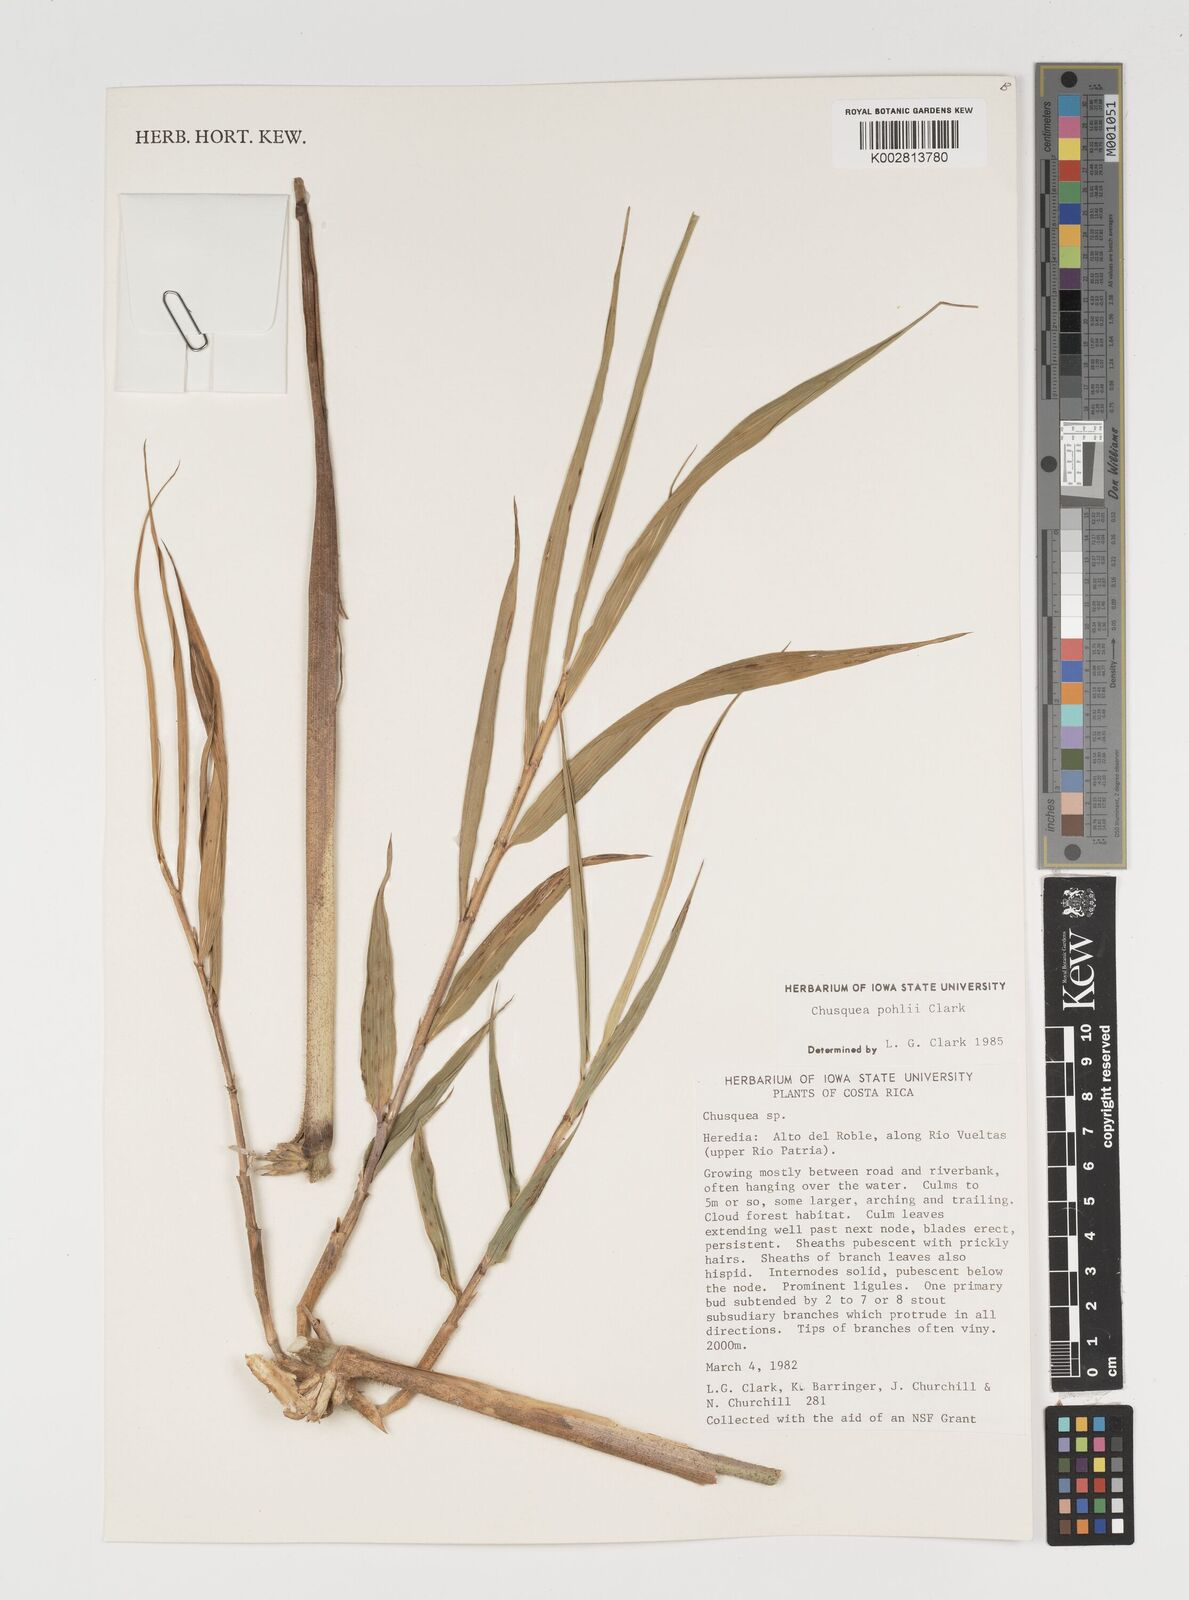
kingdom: Plantae
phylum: Tracheophyta
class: Liliopsida
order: Poales
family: Poaceae
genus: Chusquea
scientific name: Chusquea pohlii
